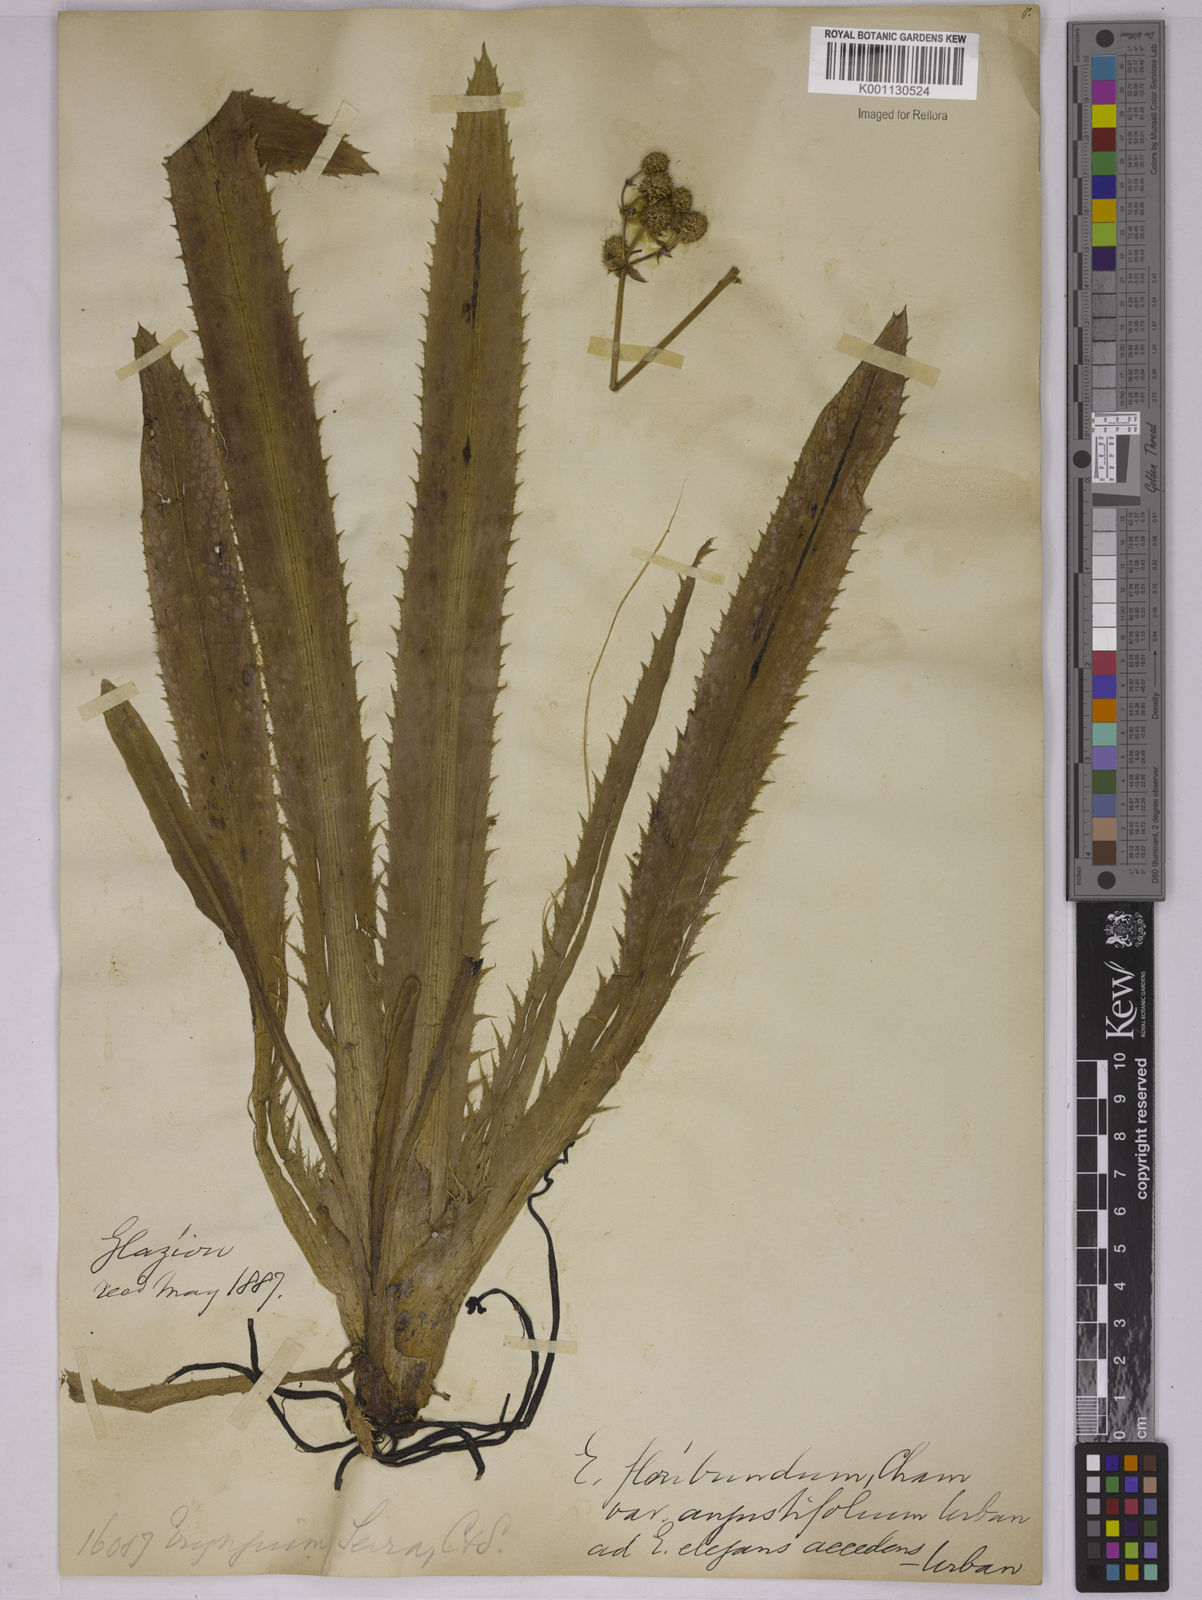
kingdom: Plantae
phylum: Tracheophyta
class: Magnoliopsida
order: Apiales
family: Apiaceae
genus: Eryngium
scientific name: Eryngium floribundum
